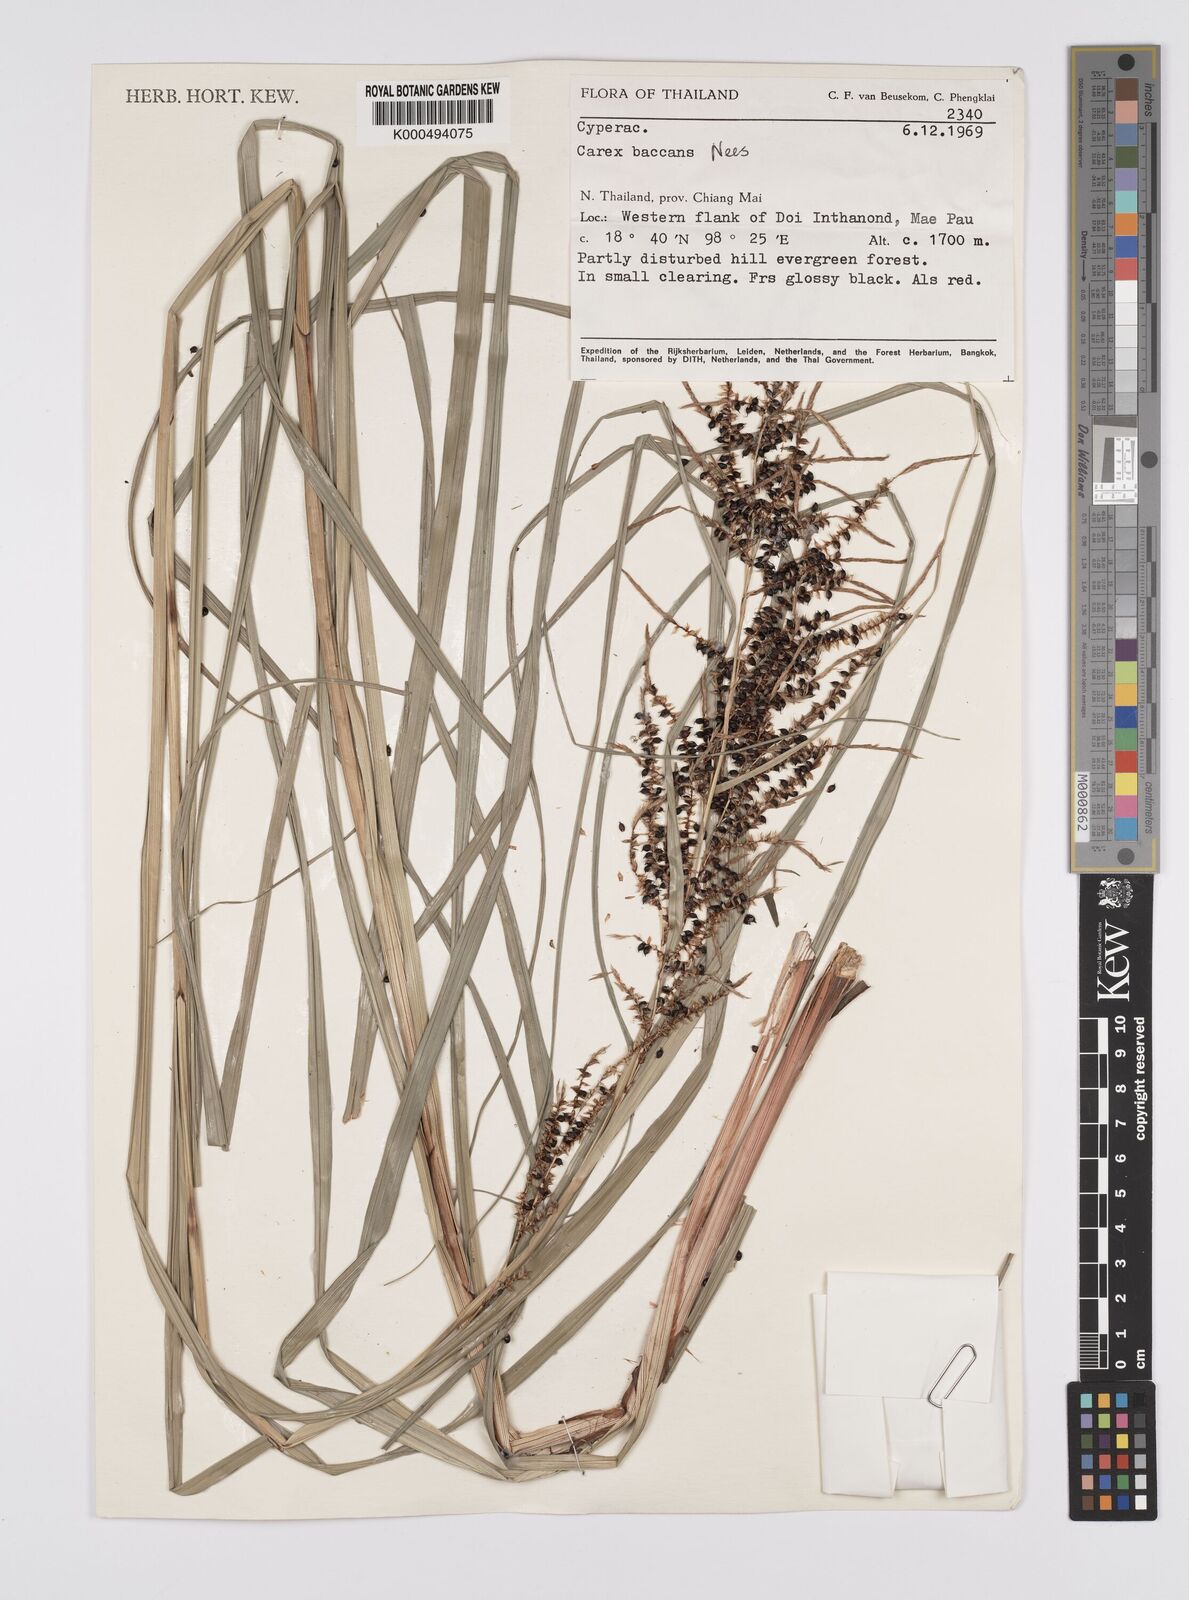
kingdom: Plantae
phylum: Tracheophyta
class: Liliopsida
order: Poales
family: Cyperaceae
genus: Carex
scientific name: Carex baccans
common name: Crimson seeded sedge
